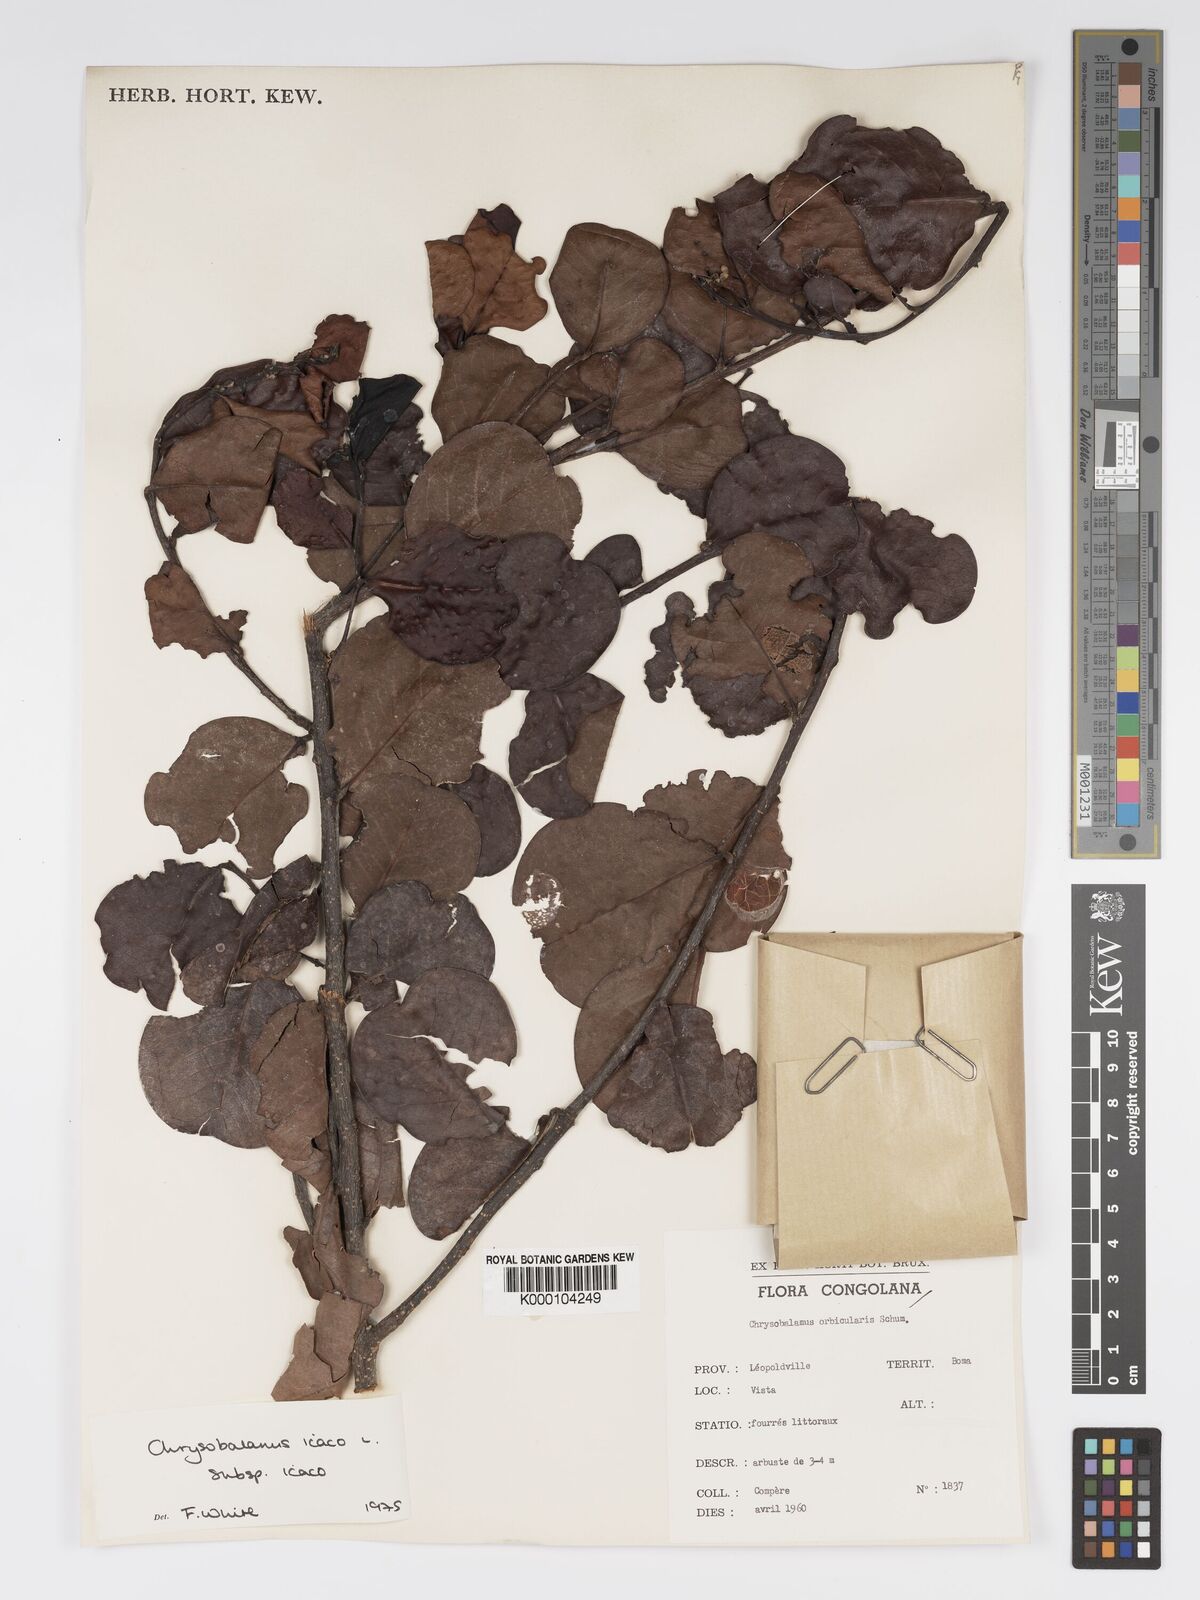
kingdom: Plantae
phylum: Tracheophyta
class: Magnoliopsida
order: Malpighiales
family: Chrysobalanaceae
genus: Chrysobalanus
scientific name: Chrysobalanus icaco
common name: Coco plum
